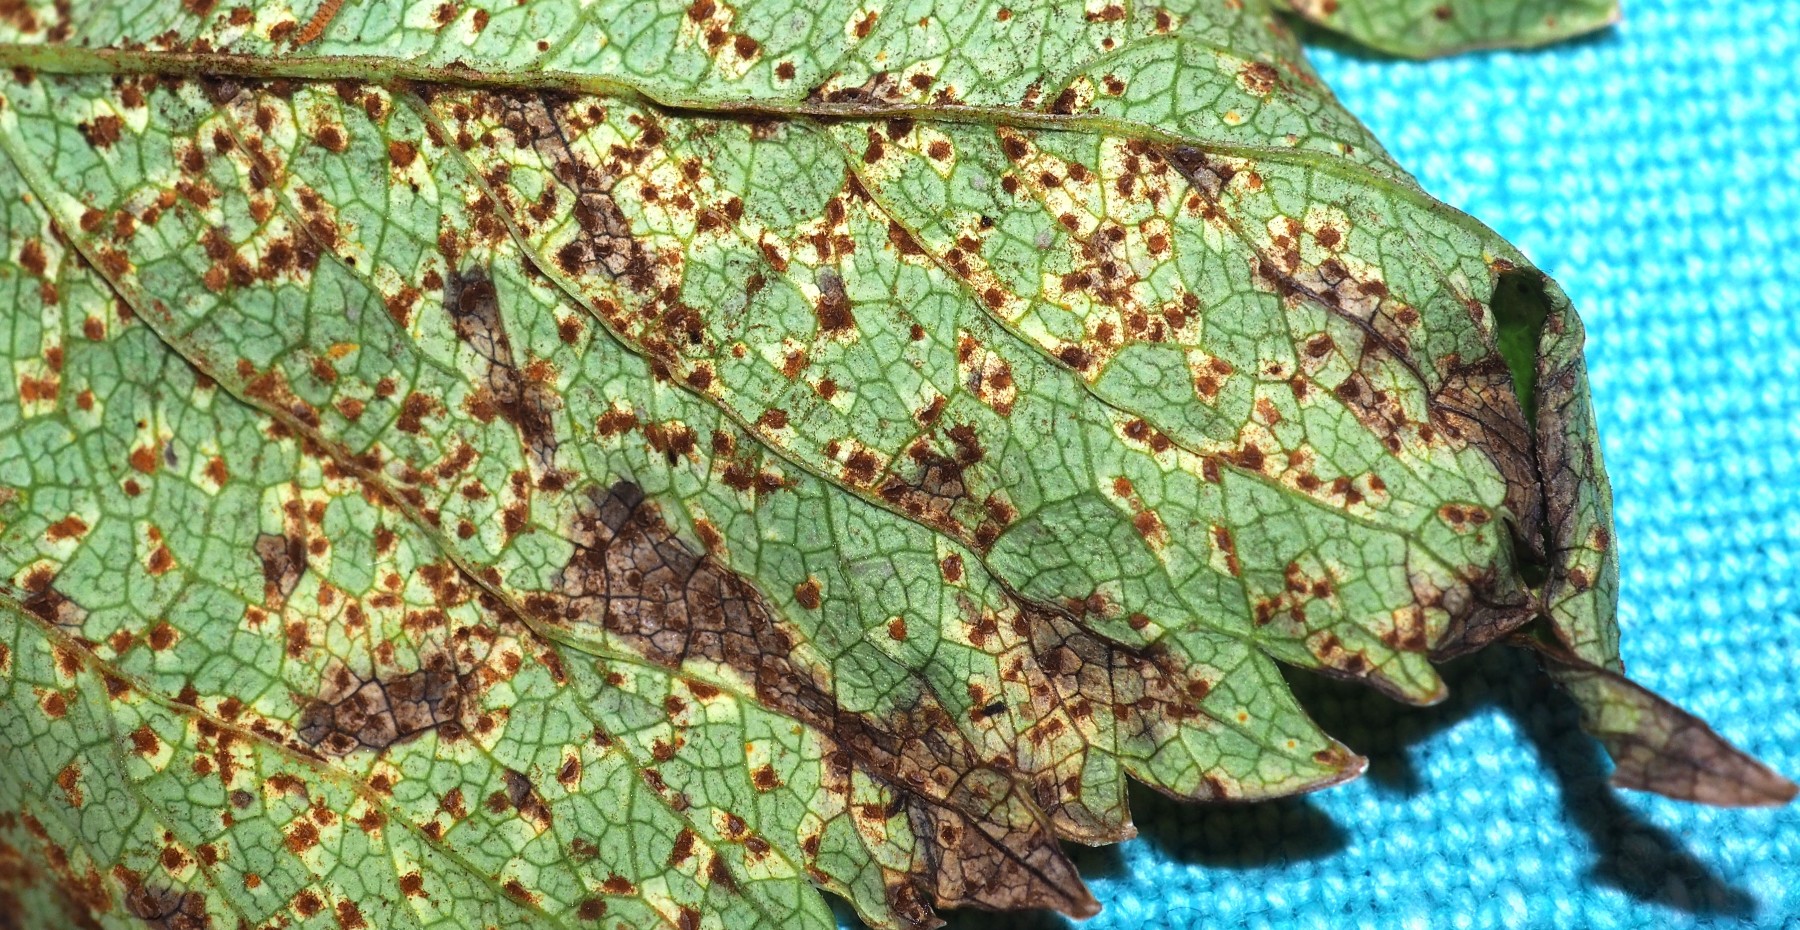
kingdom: Fungi
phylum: Basidiomycota
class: Pucciniomycetes
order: Pucciniales
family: Pucciniaceae
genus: Puccinia
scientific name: Puccinia angelicae
